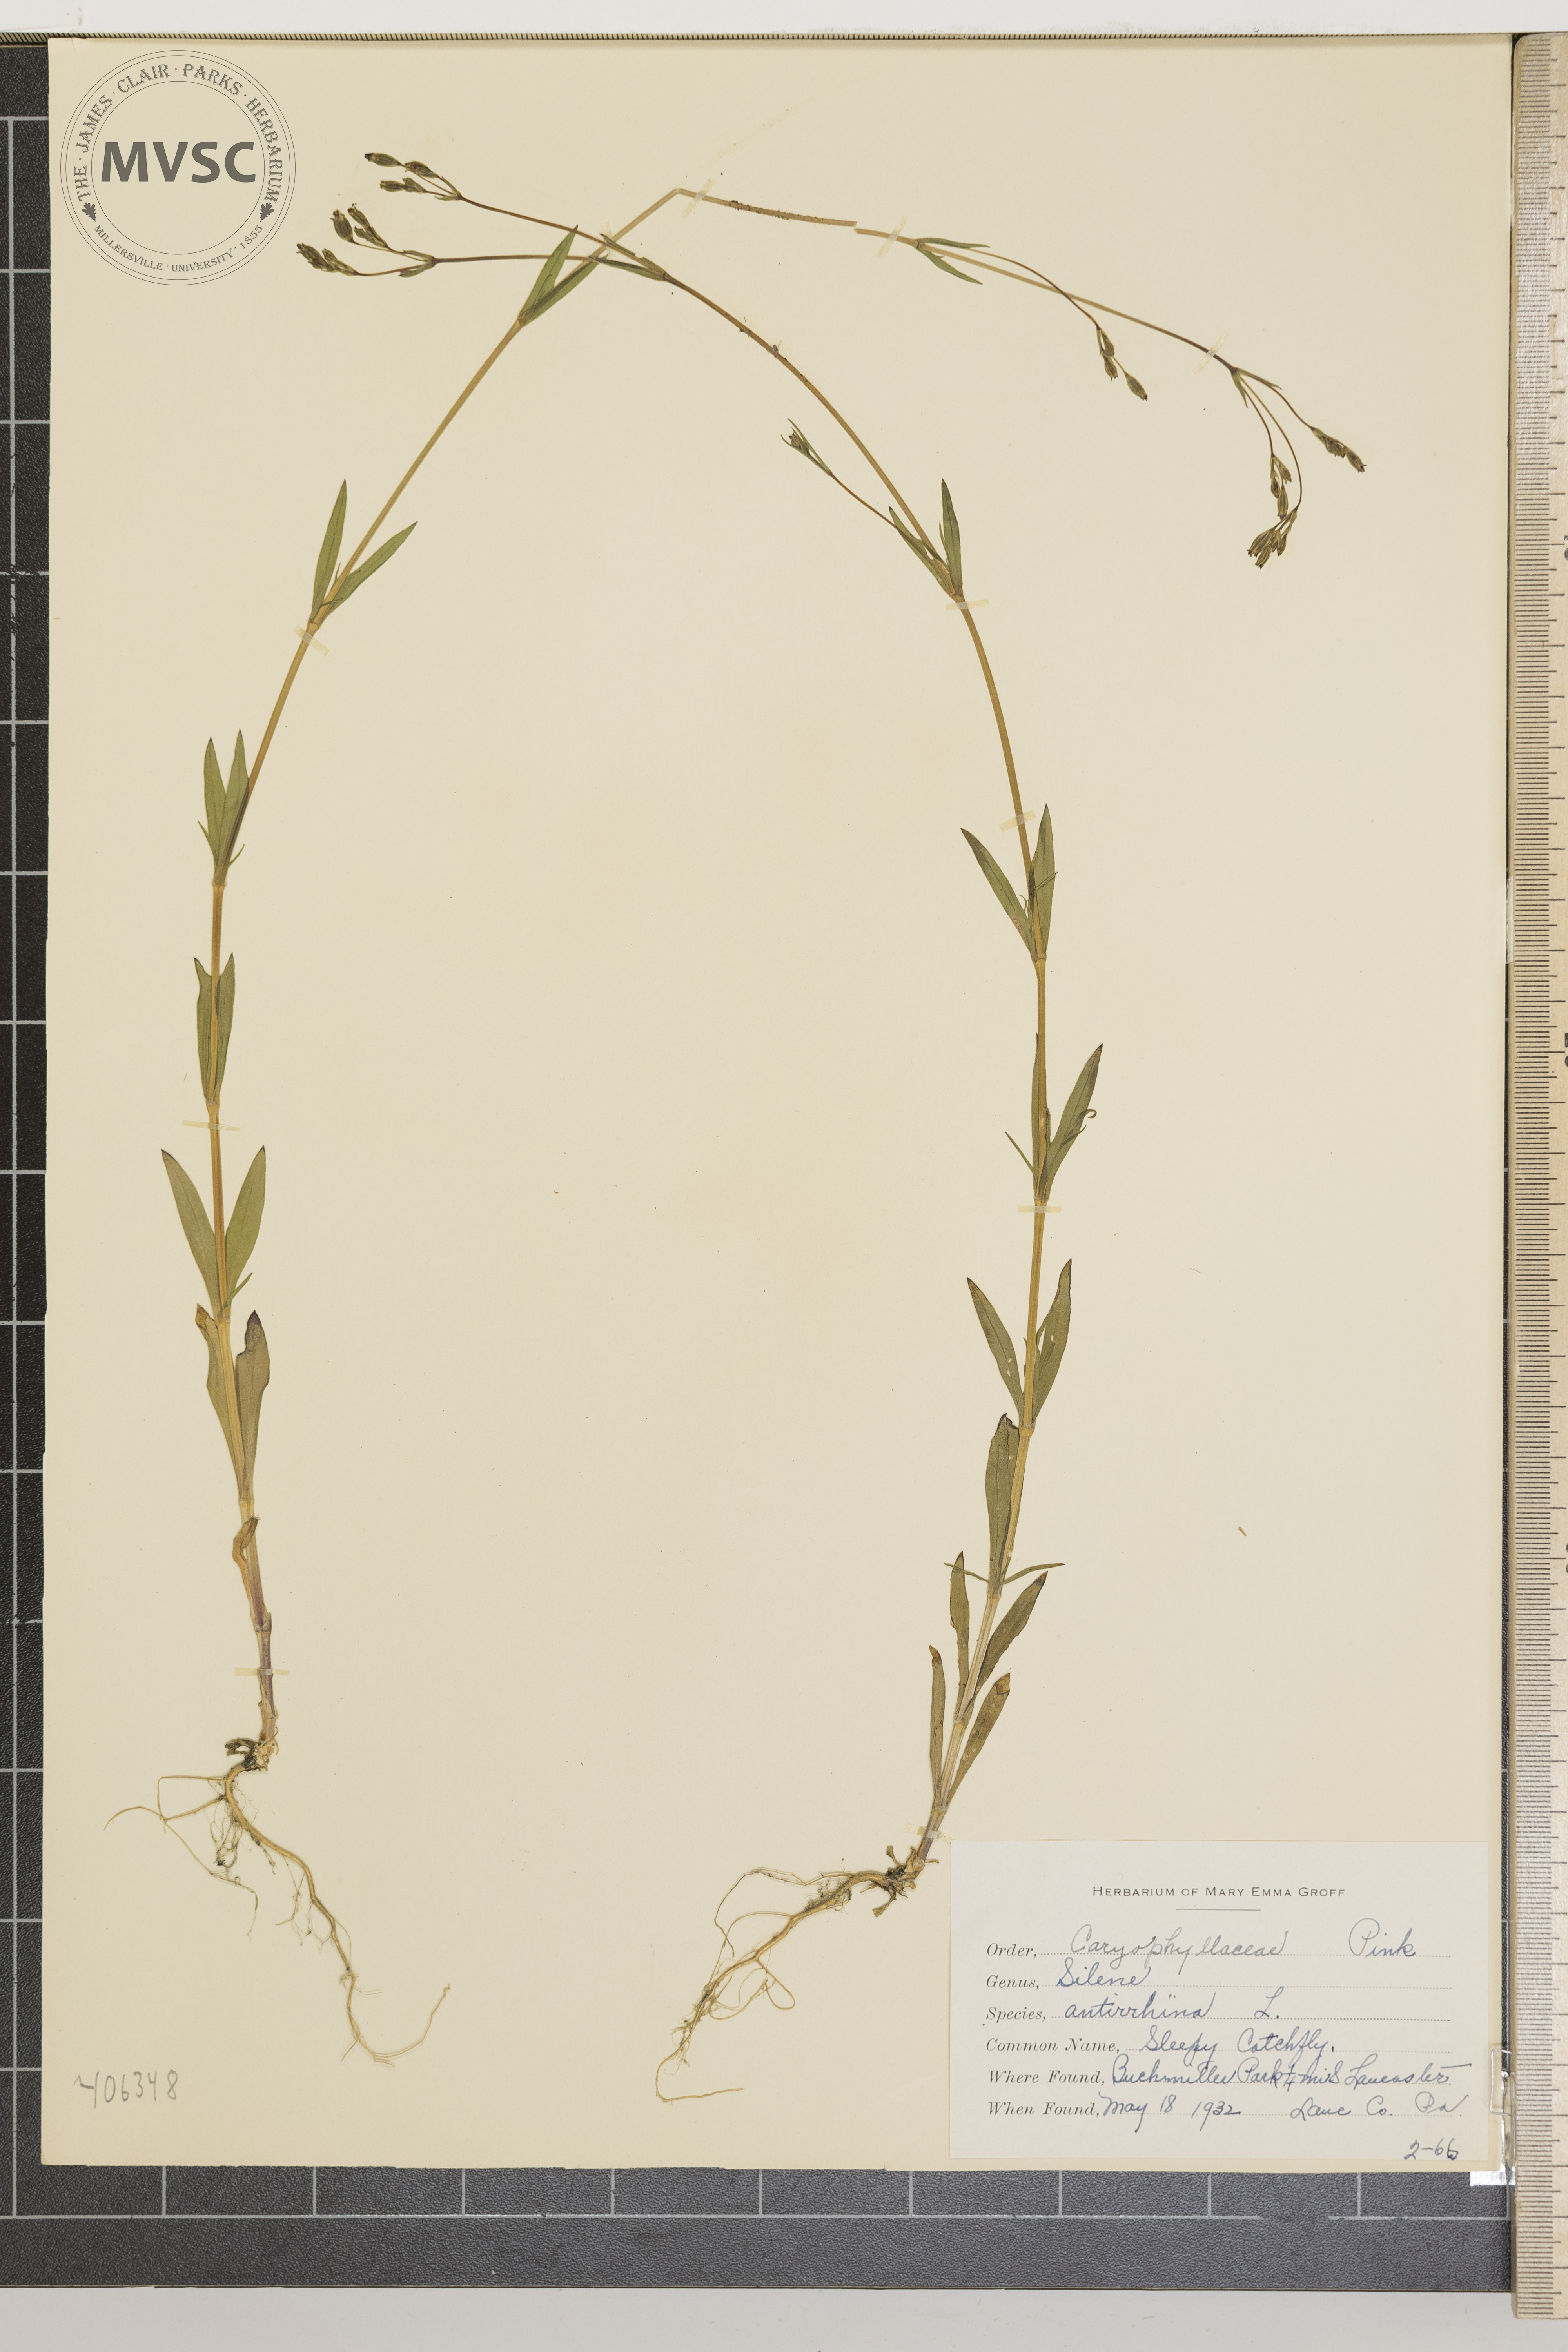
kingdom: Plantae
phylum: Tracheophyta
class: Magnoliopsida
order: Caryophyllales
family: Caryophyllaceae
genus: Silene
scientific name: Silene antirrhina
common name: Sleepy Catchfly
